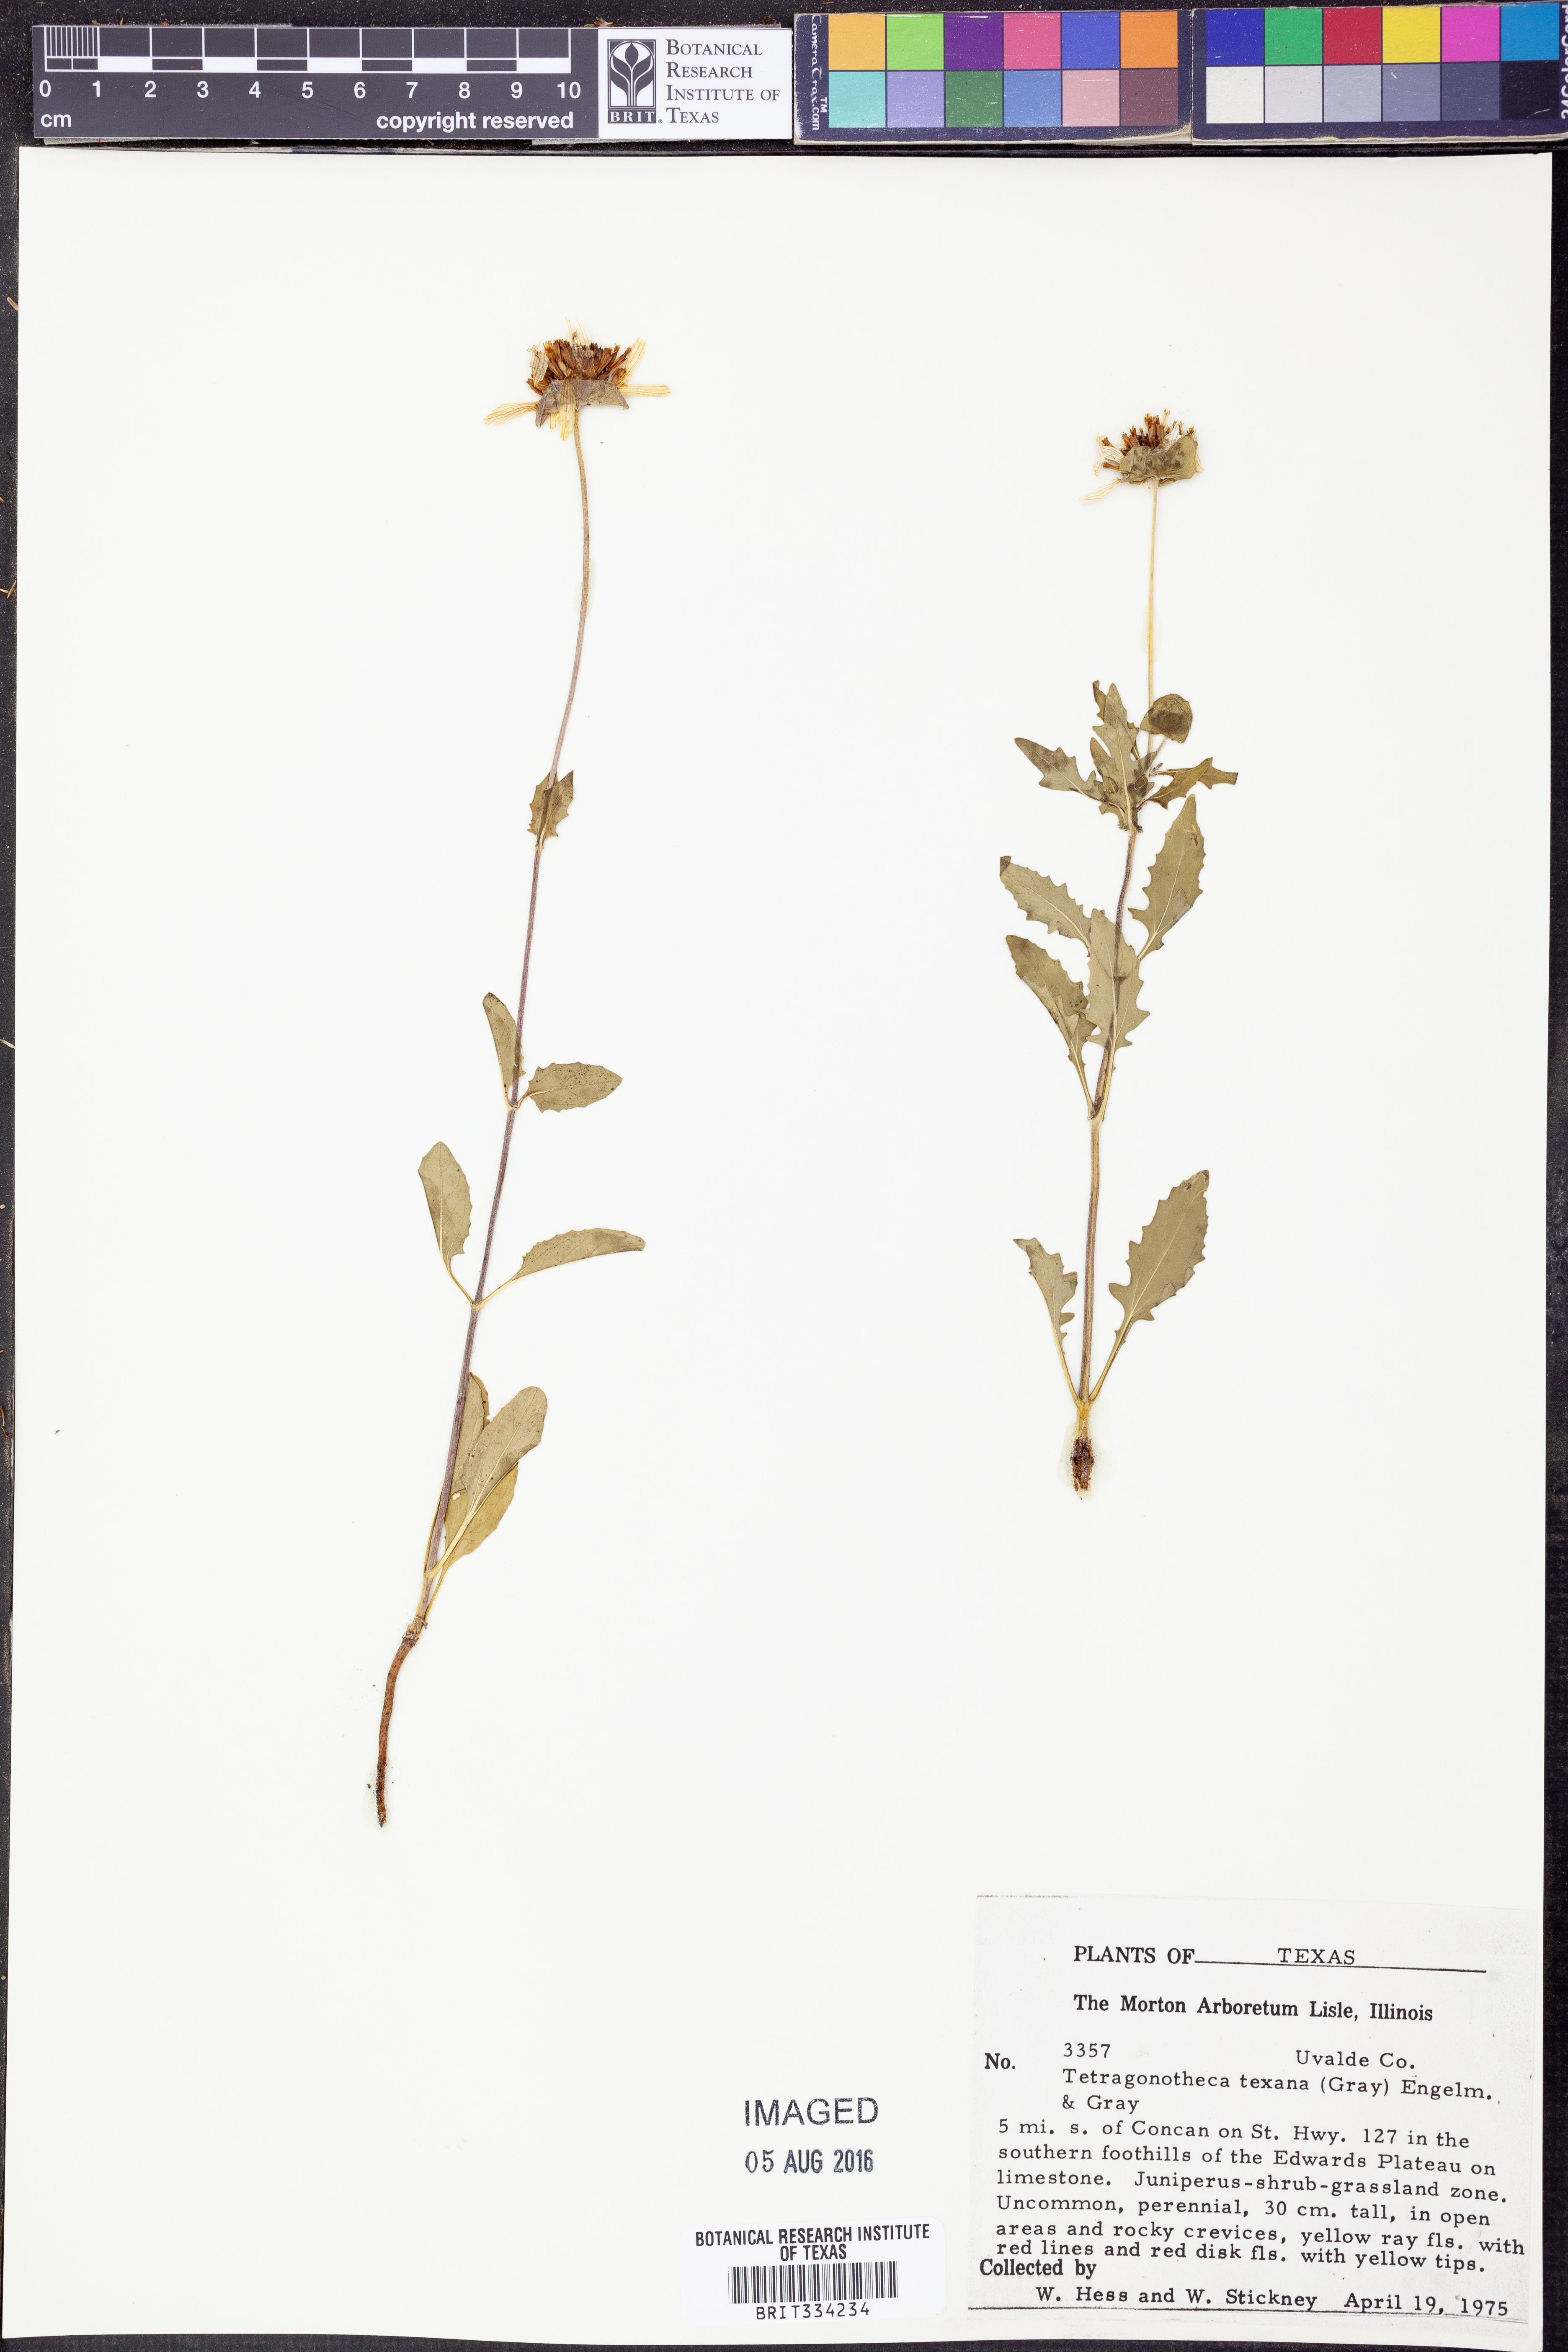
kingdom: Plantae
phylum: Tracheophyta
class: Magnoliopsida
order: Asterales
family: Asteraceae
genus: Tetragonotheca
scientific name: Tetragonotheca texana
